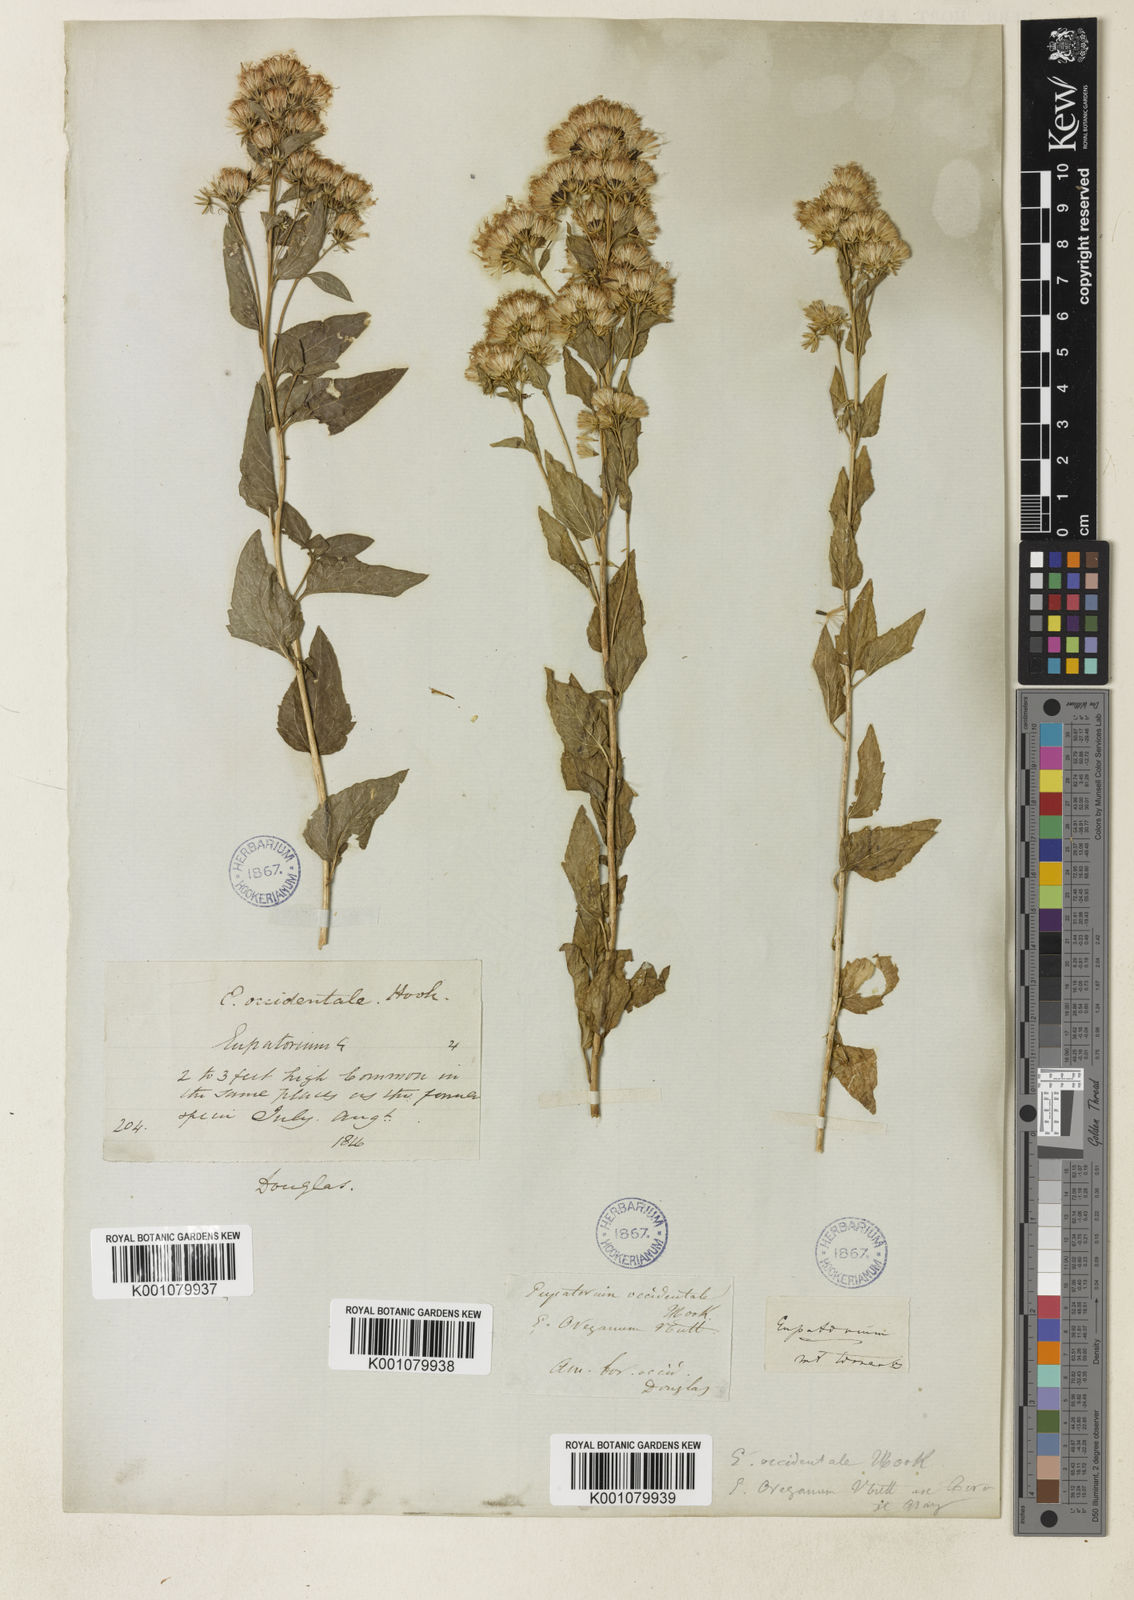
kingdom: Plantae
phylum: Tracheophyta
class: Magnoliopsida
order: Asterales
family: Asteraceae
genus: Ageratina
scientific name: Ageratina occidentalis
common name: Western snakeroot
